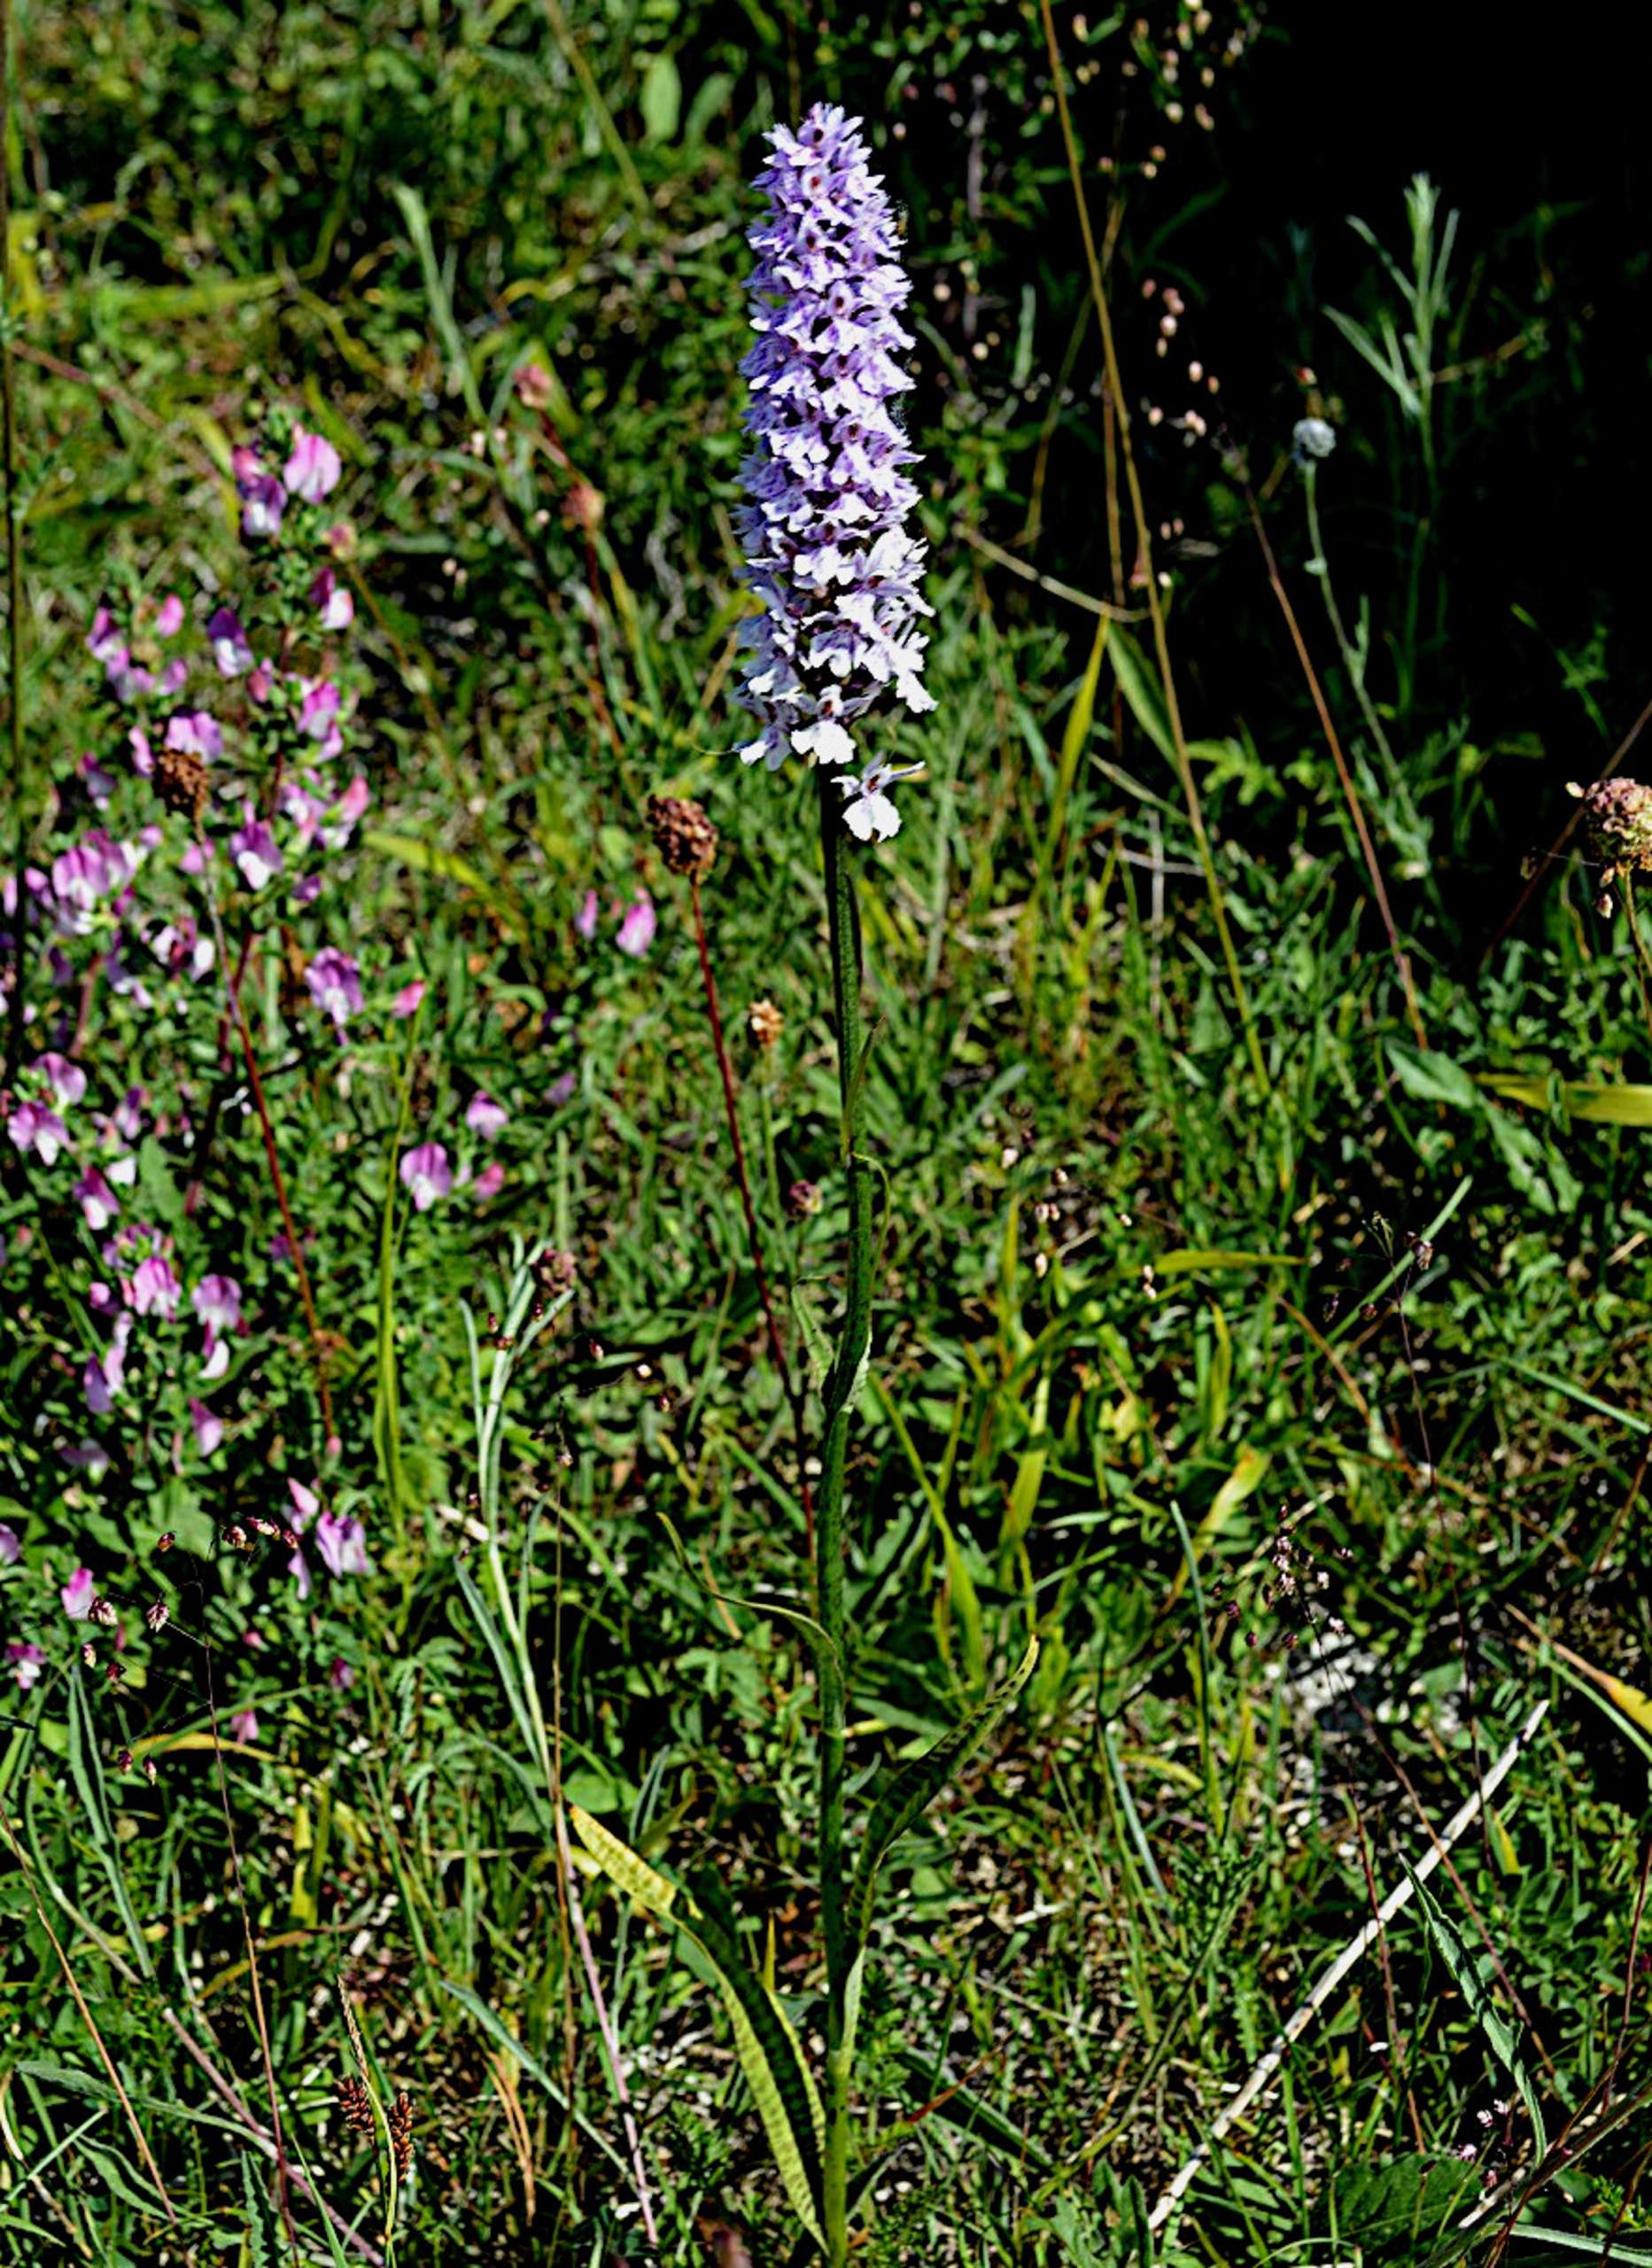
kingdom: Plantae
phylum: Tracheophyta
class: Liliopsida
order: Asparagales
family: Orchidaceae
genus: Dactylorhiza
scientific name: Dactylorhiza maculata
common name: Plettet gøgeurt
